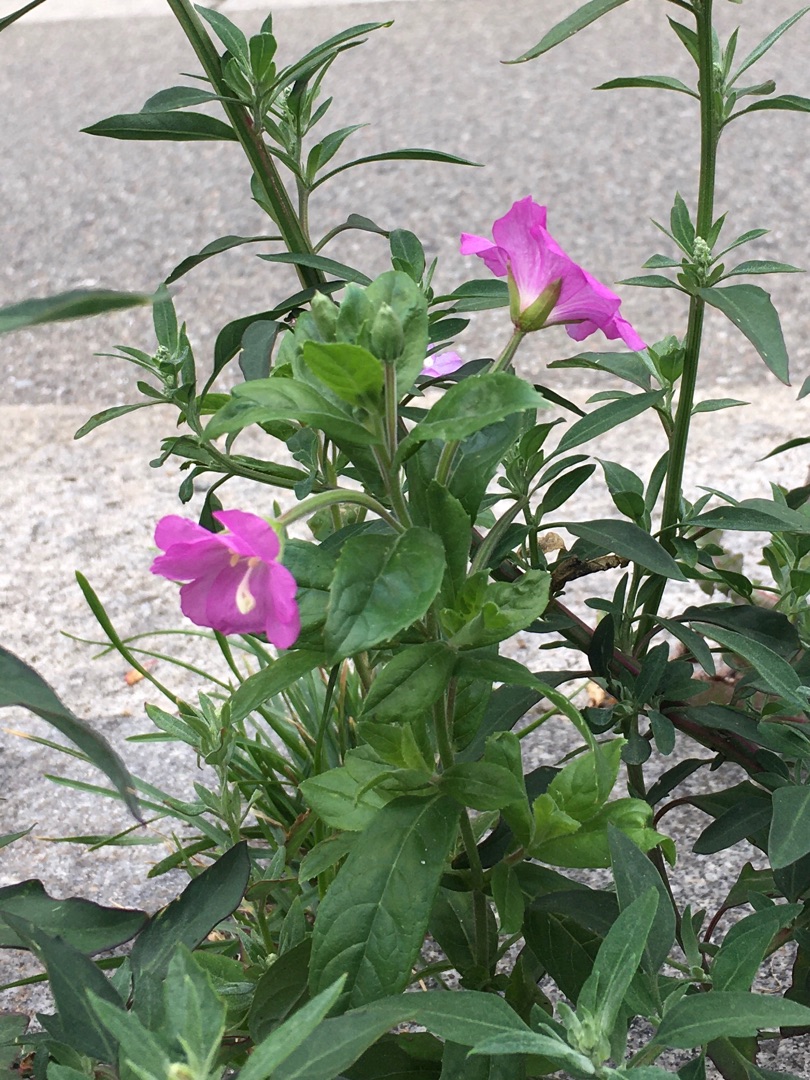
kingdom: Plantae
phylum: Tracheophyta
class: Magnoliopsida
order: Myrtales
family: Onagraceae
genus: Epilobium
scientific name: Epilobium hirsutum
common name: Lådden dueurt
